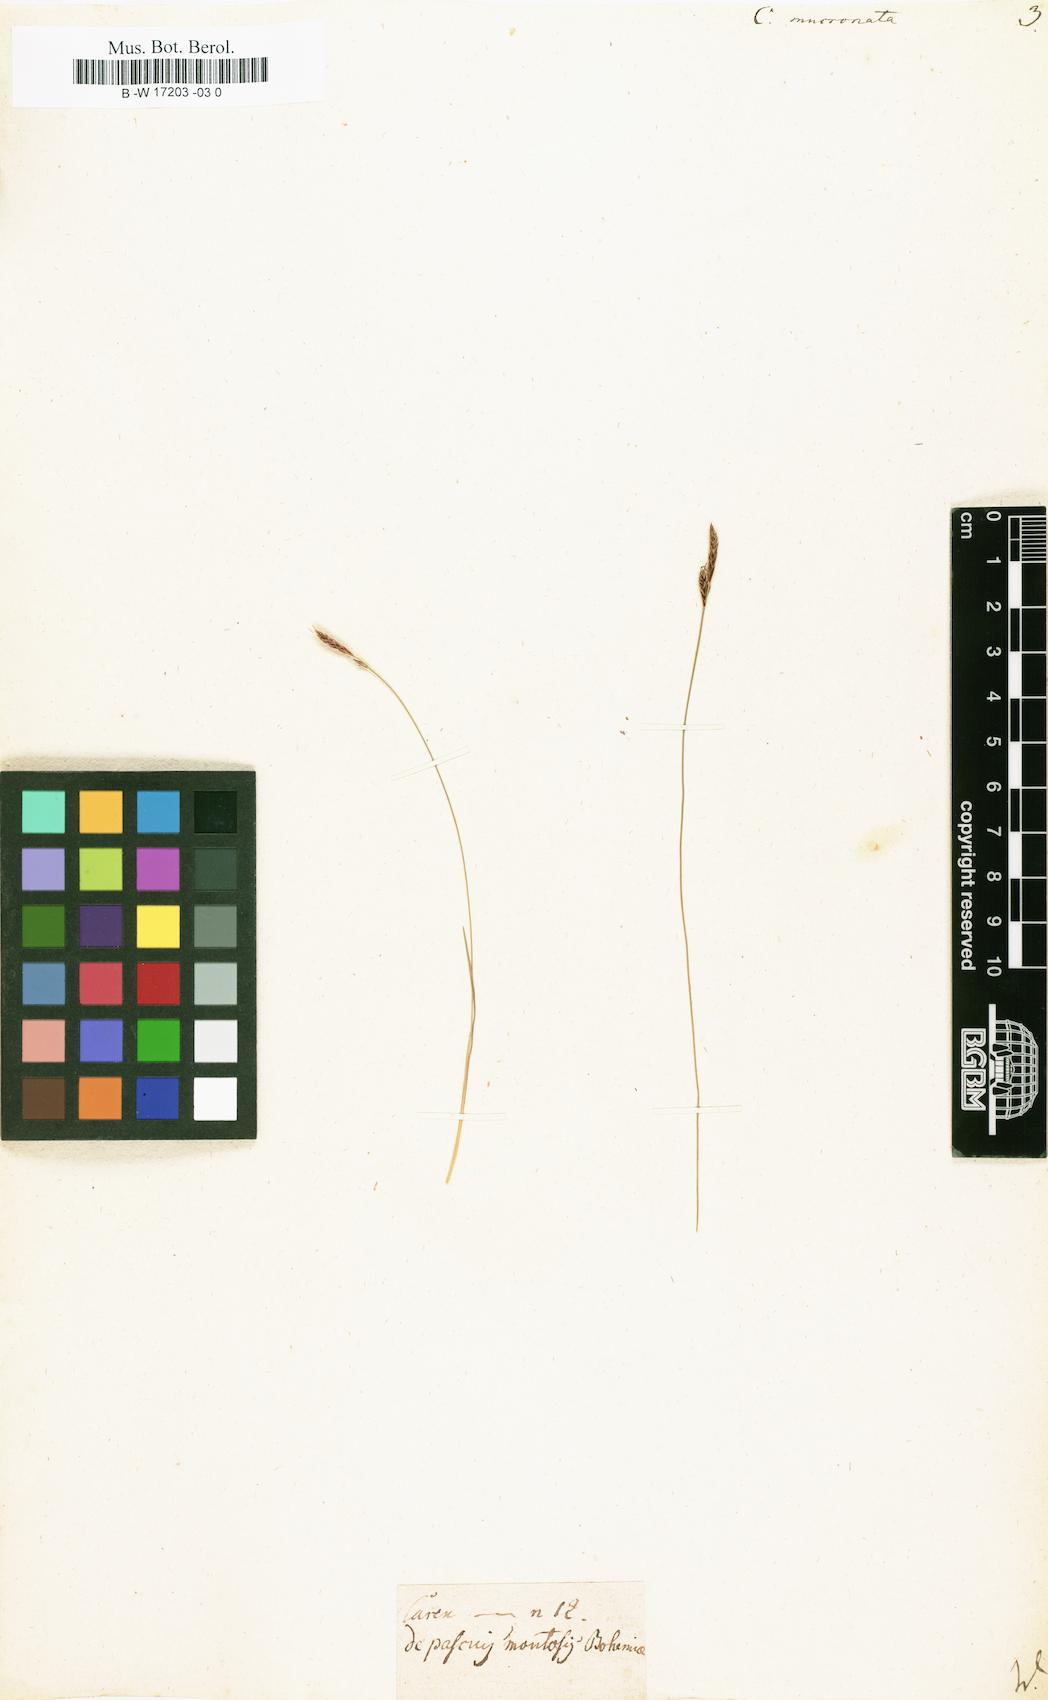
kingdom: Plantae
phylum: Tracheophyta
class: Liliopsida
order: Poales
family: Cyperaceae
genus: Carex
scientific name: Carex mucronata
